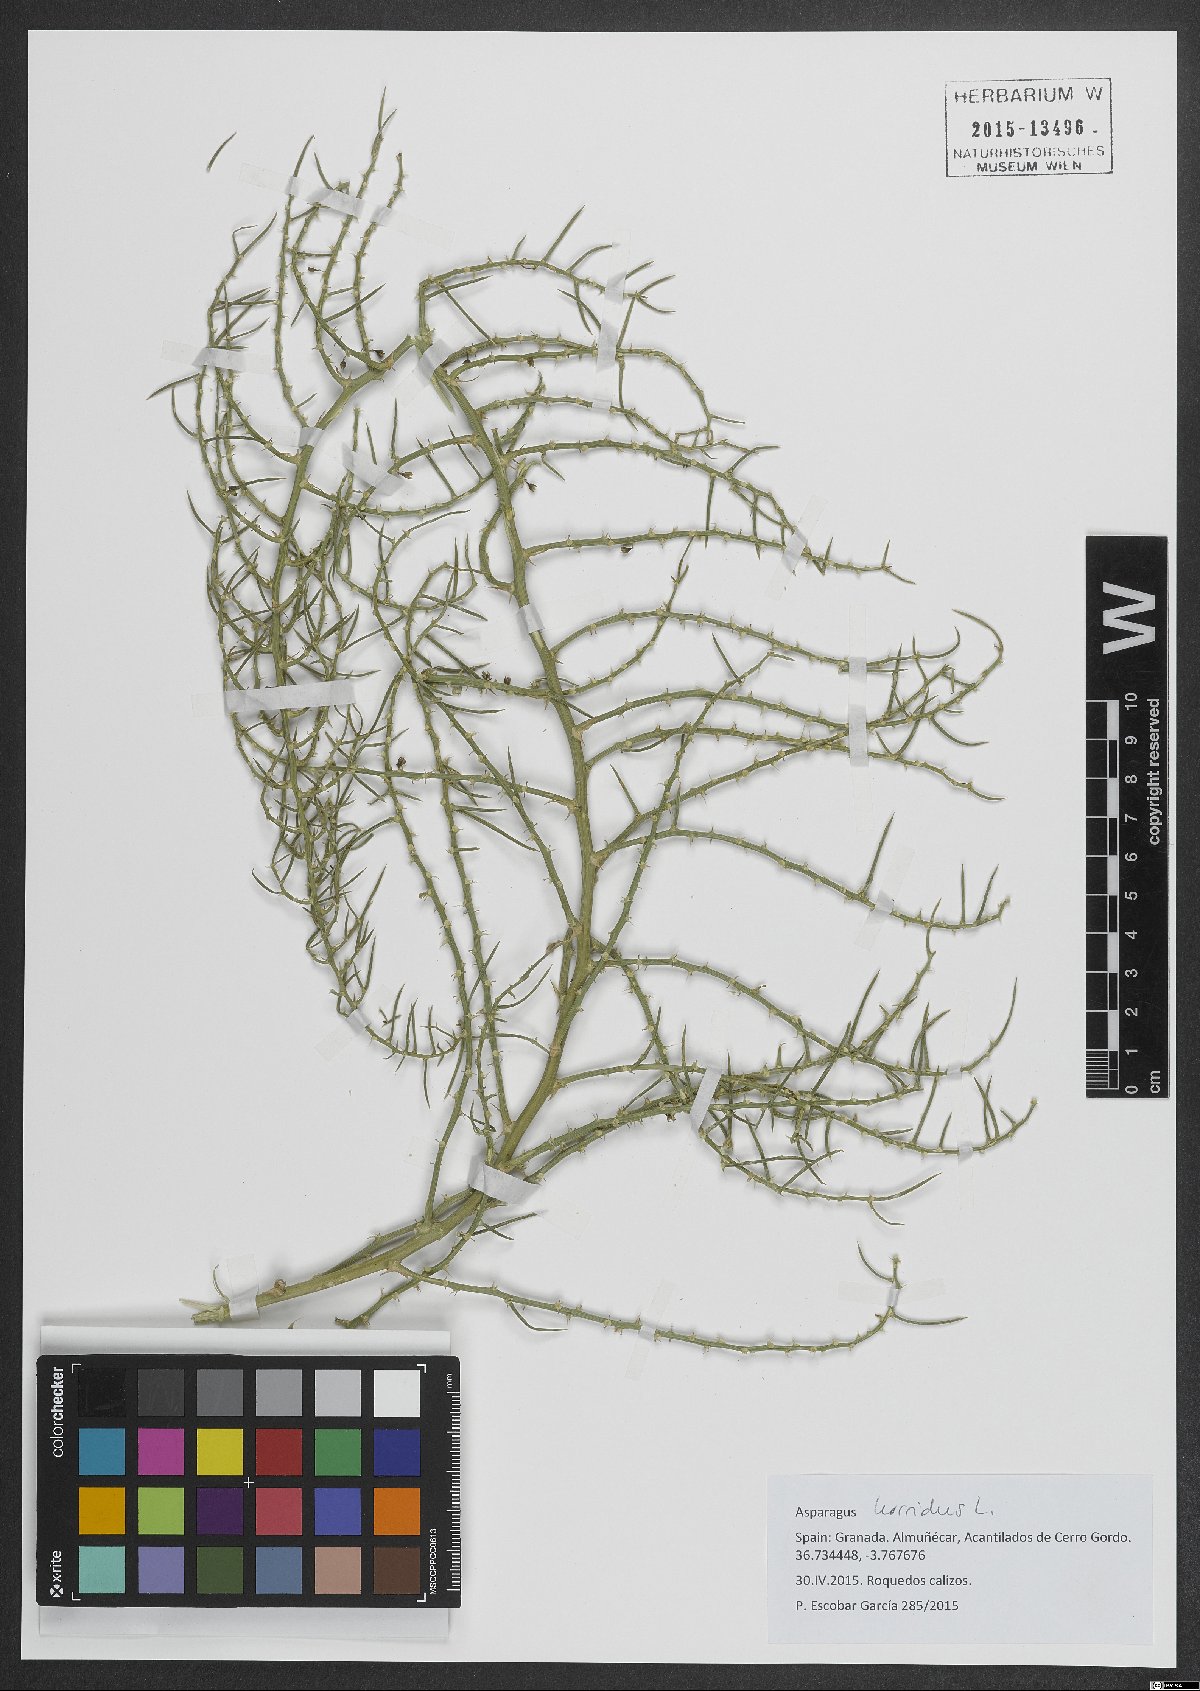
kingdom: Plantae
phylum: Tracheophyta
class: Liliopsida
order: Asparagales
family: Asparagaceae
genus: Asparagus
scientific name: Asparagus horridus
